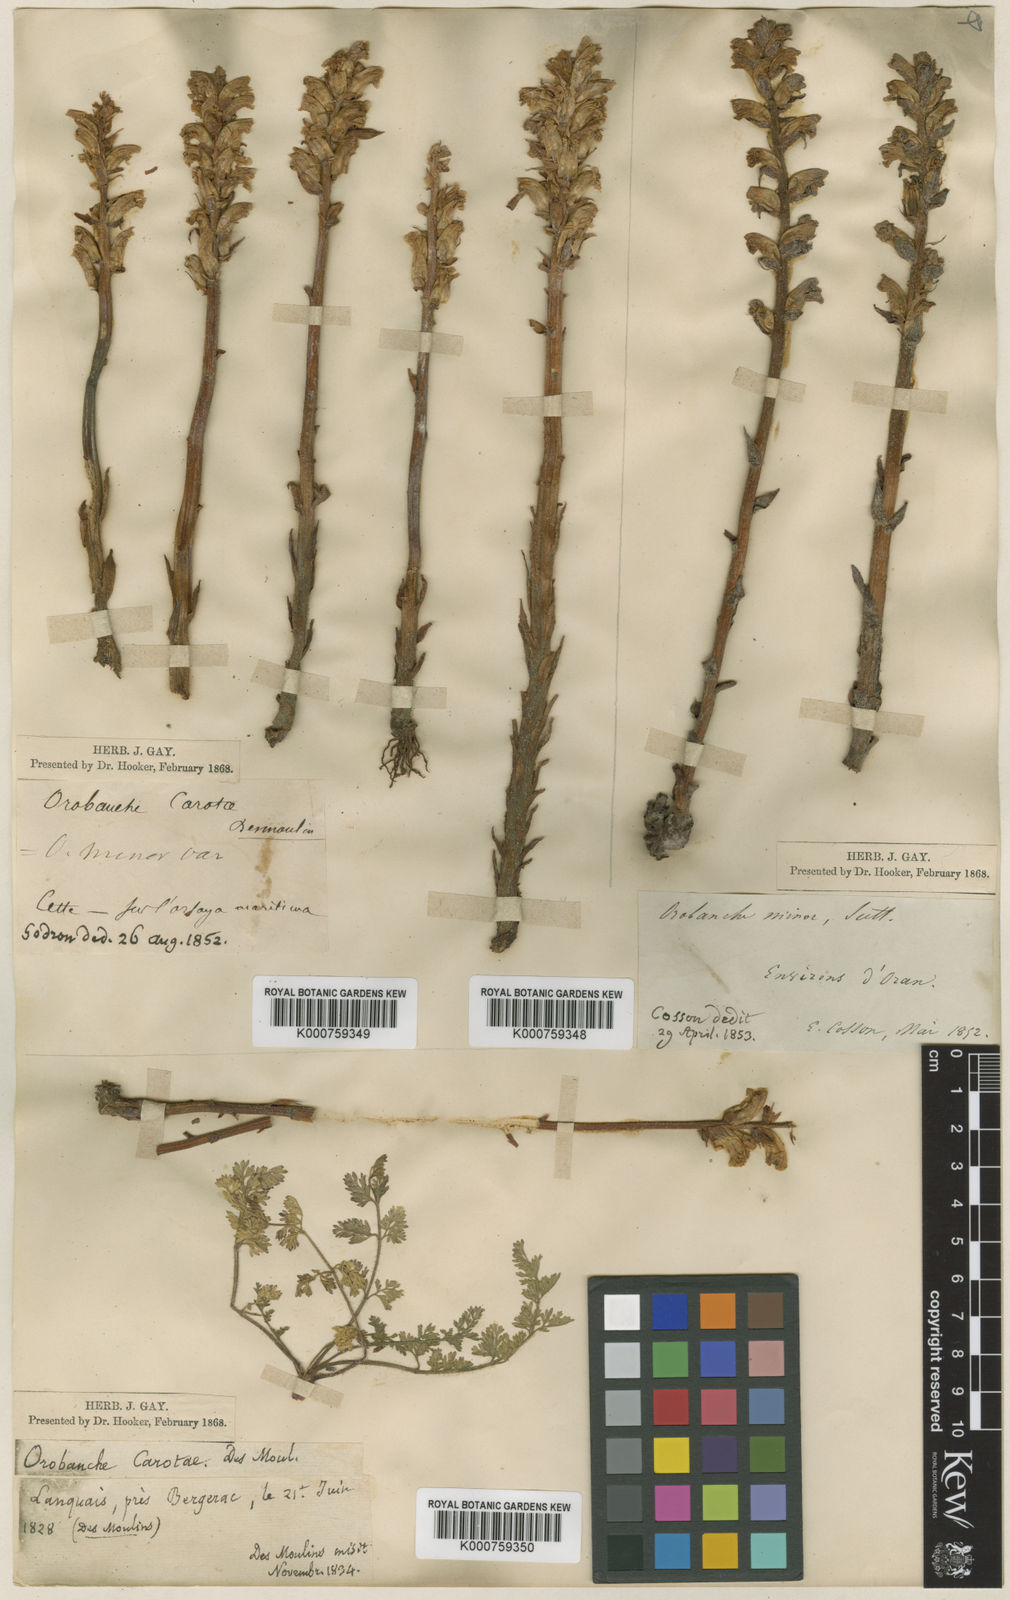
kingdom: Plantae
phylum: Tracheophyta
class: Magnoliopsida
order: Lamiales
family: Orobanchaceae
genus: Orobanche
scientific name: Orobanche picridis
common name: Oxtongue broomrape
